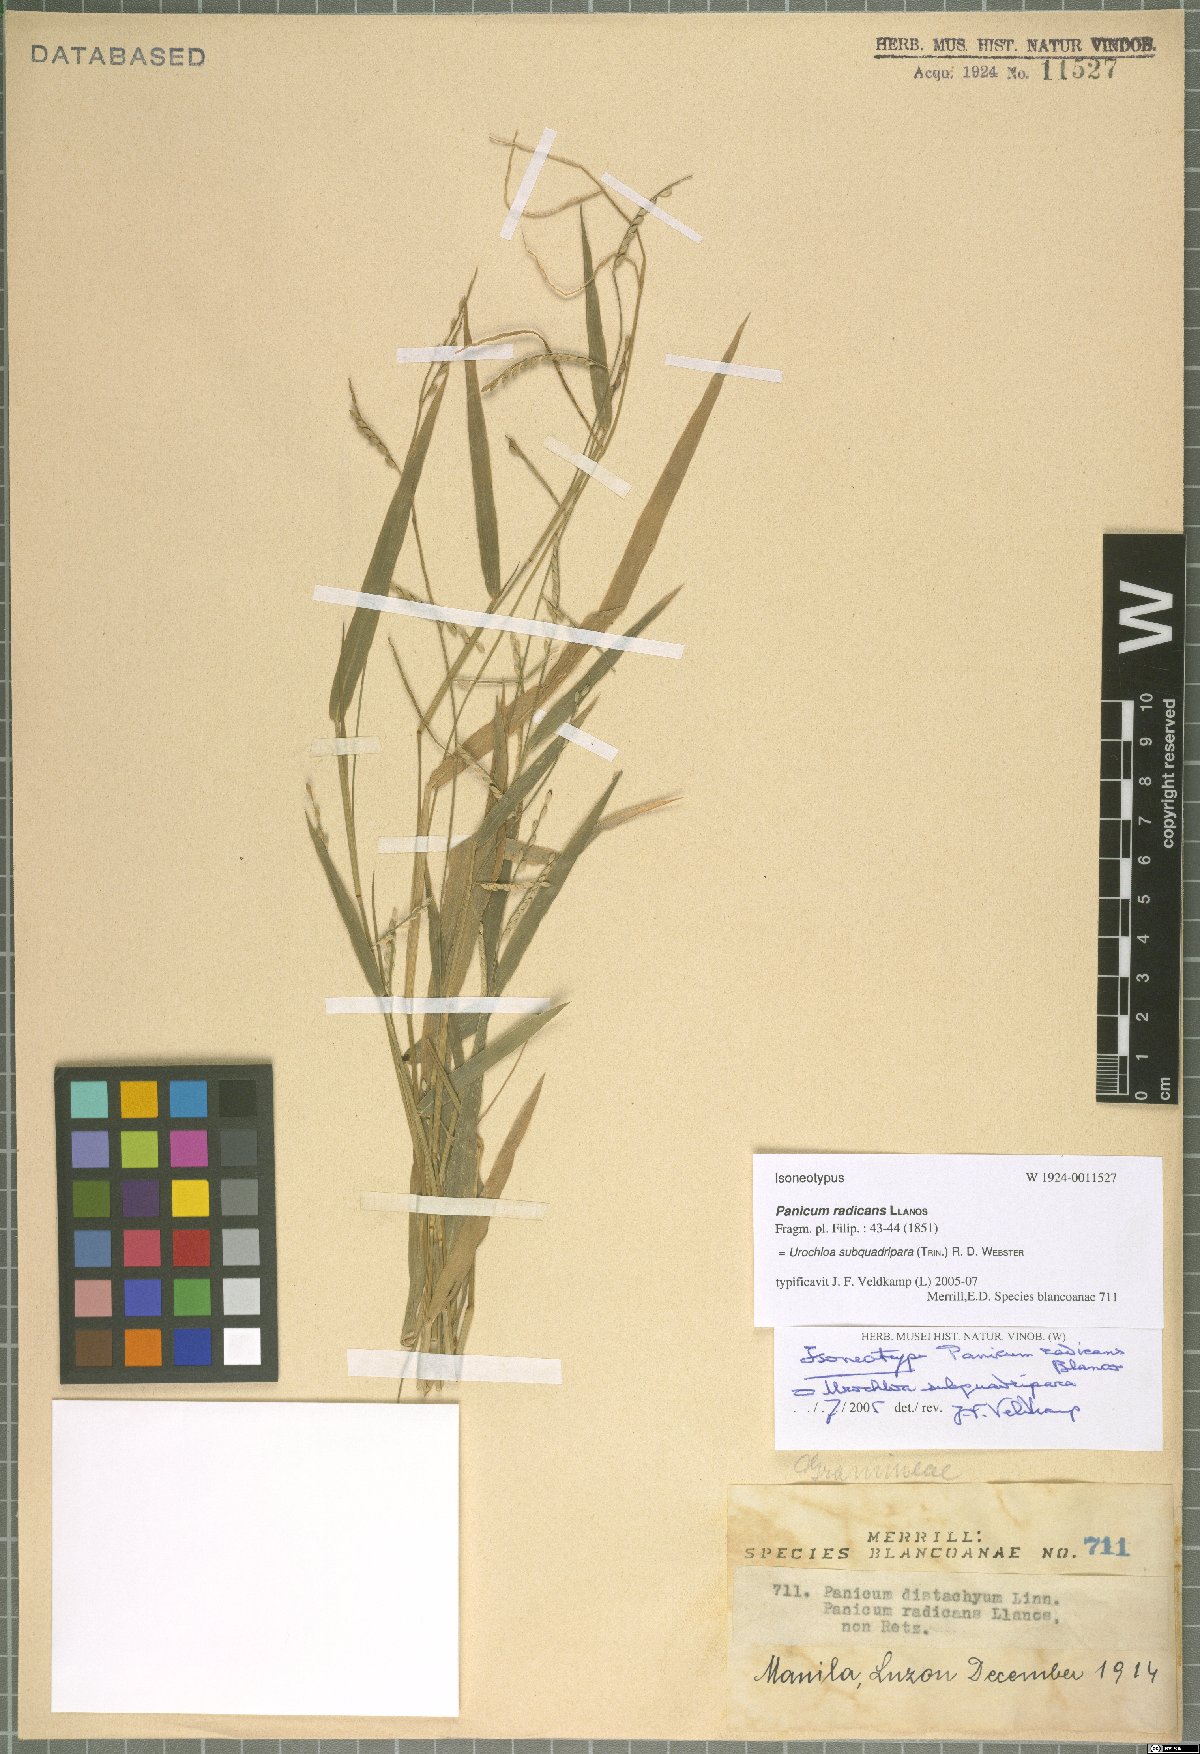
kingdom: Plantae
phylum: Tracheophyta
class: Liliopsida
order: Poales
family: Poaceae
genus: Urochloa
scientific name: Urochloa subquadripara
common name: Armgrass millet
